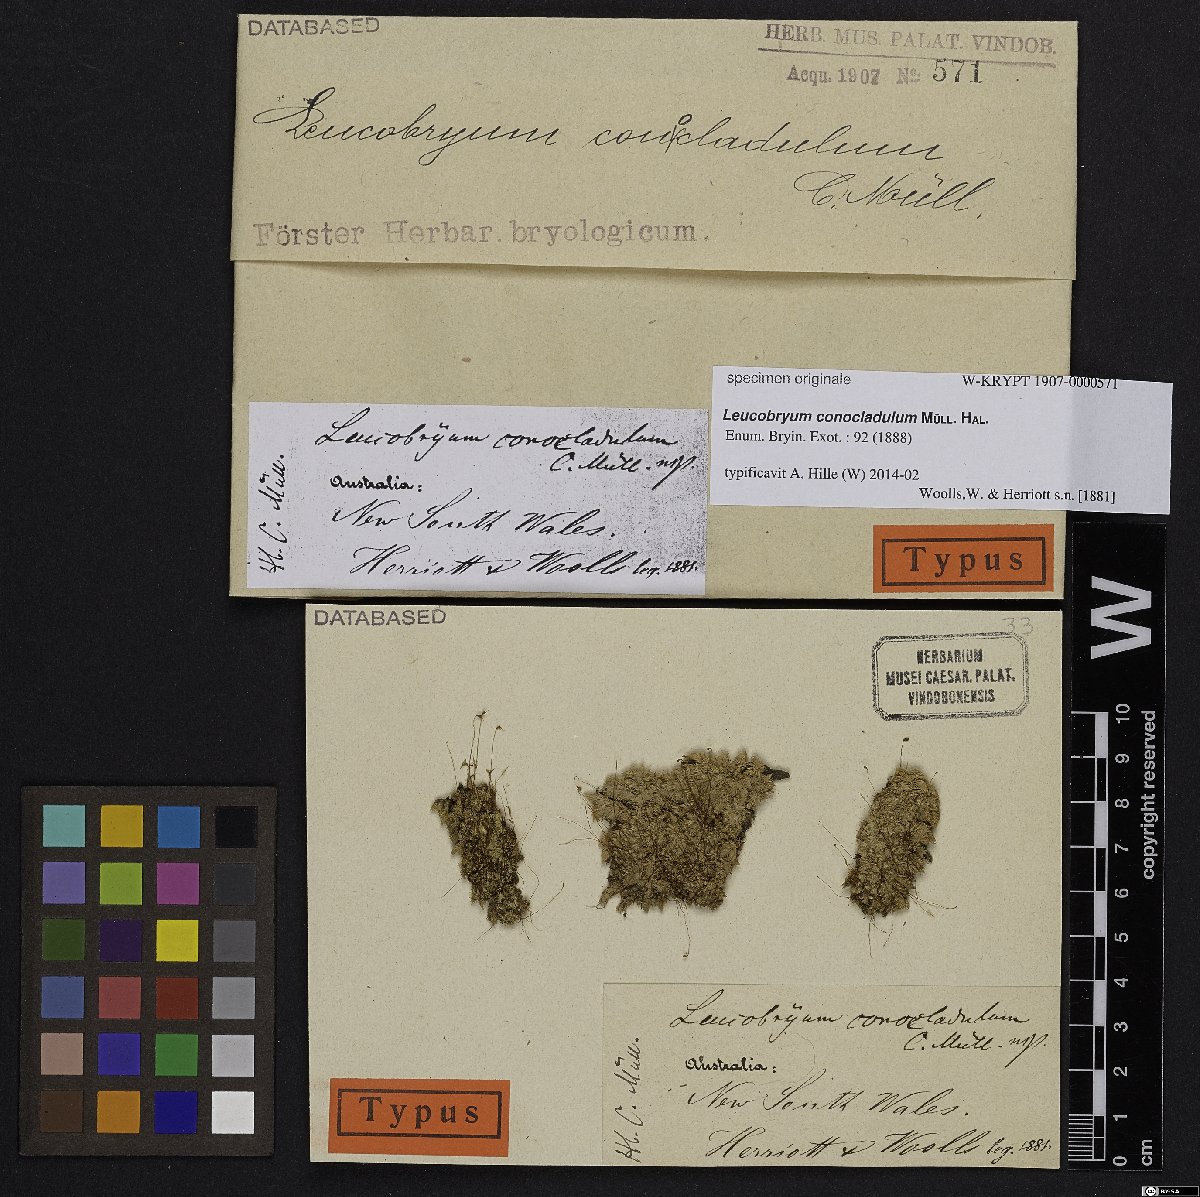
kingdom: Plantae
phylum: Bryophyta
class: Bryopsida
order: Dicranales
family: Leucobryaceae
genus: Leucobryum
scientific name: Leucobryum aduncum
